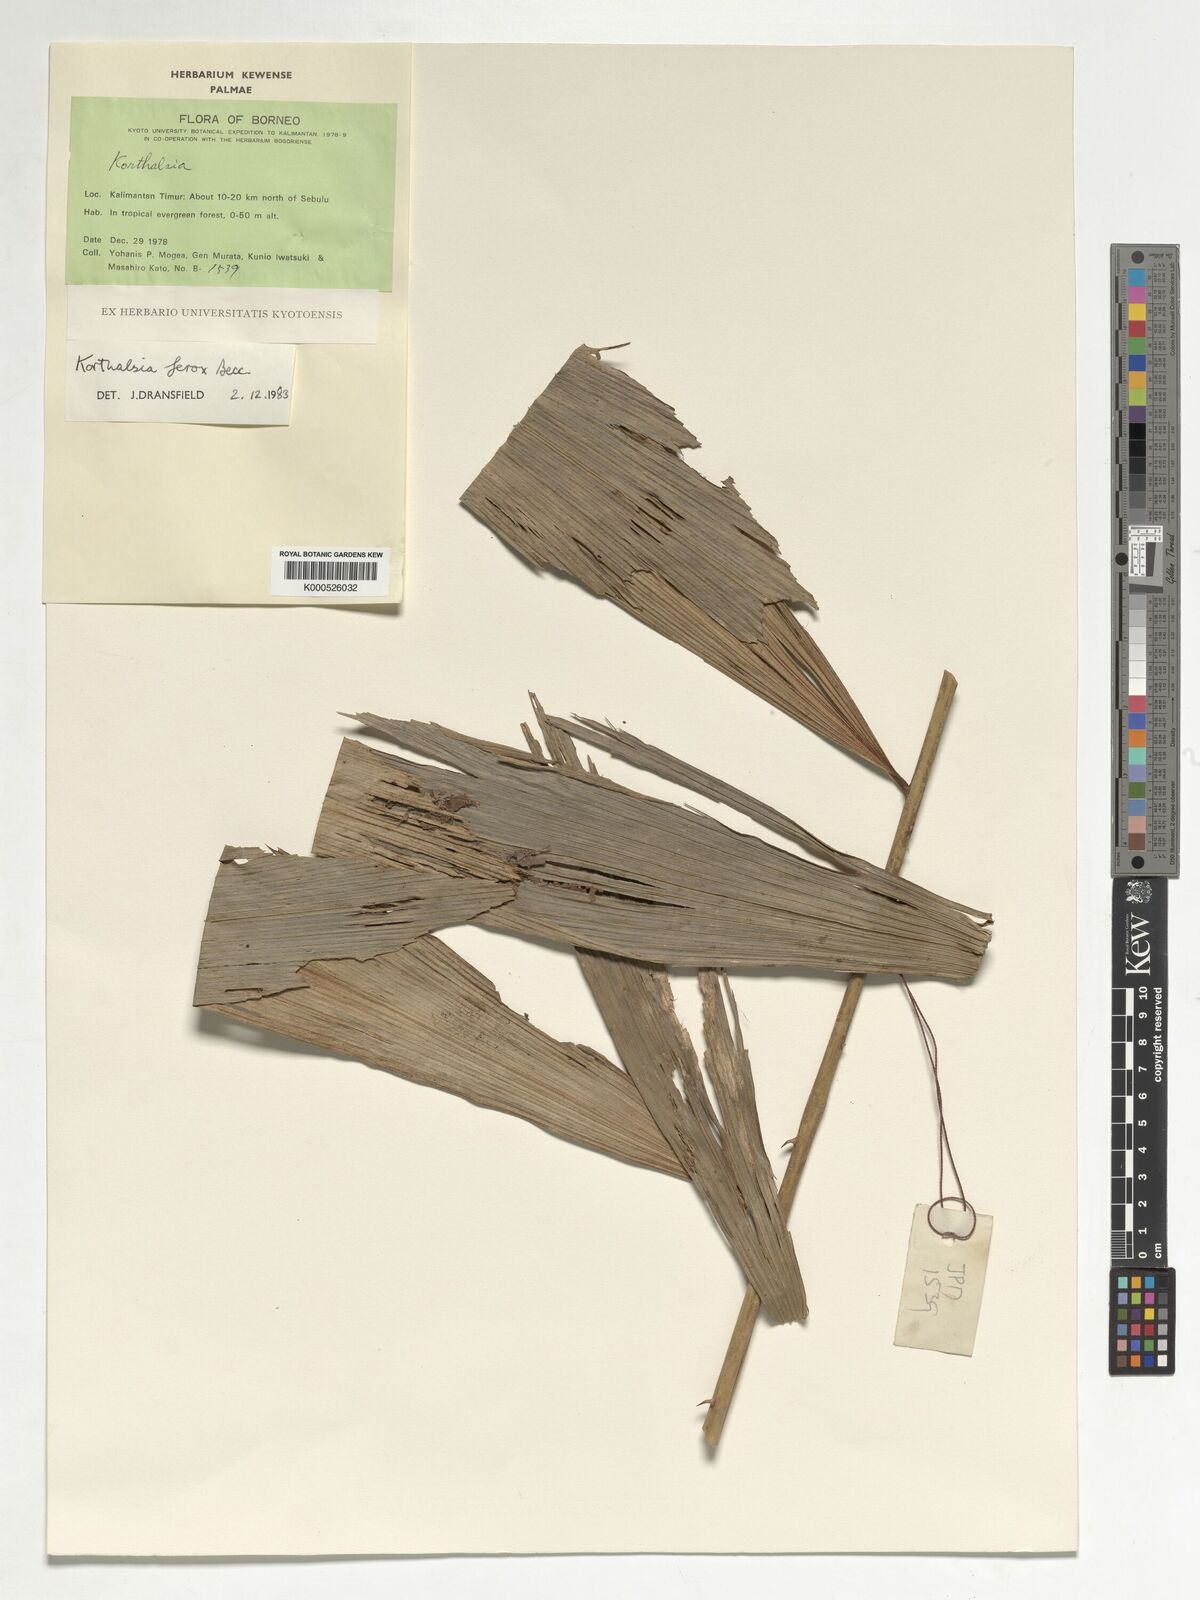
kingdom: Plantae
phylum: Tracheophyta
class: Liliopsida
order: Arecales
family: Arecaceae
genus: Korthalsia
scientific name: Korthalsia ferox
